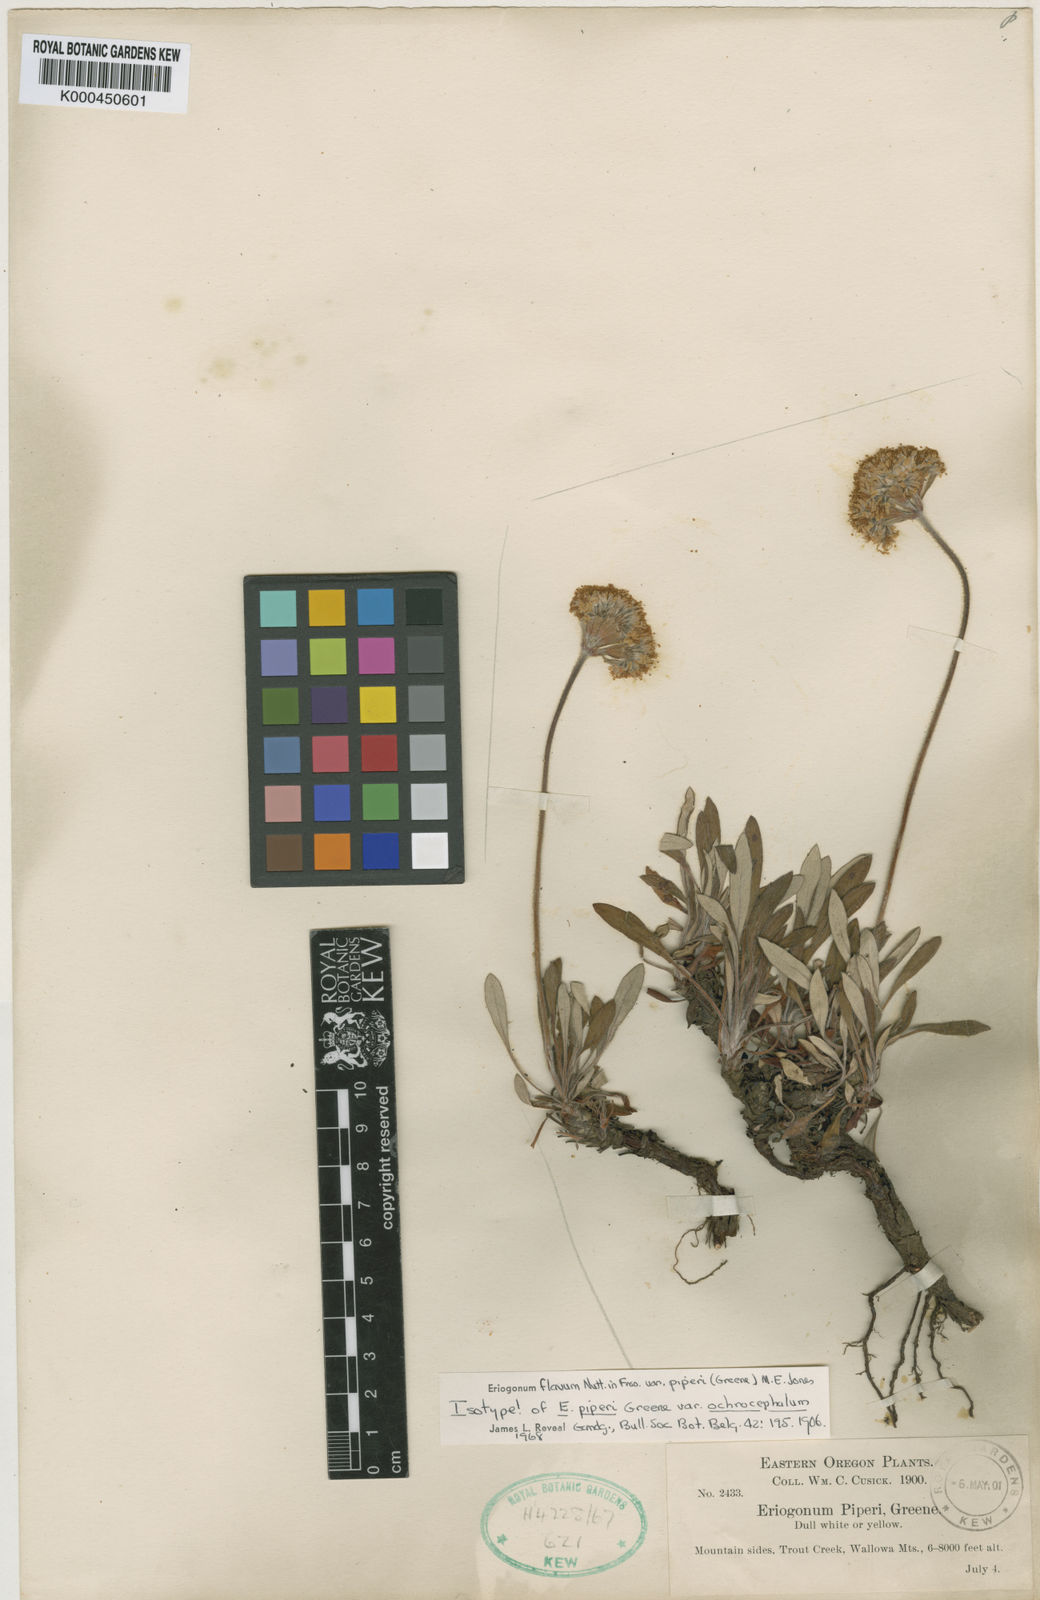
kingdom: Plantae
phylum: Tracheophyta
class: Magnoliopsida
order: Caryophyllales
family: Polygonaceae
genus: Eriogonum
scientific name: Eriogonum flavum
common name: Alpine golden wild buckwheat
